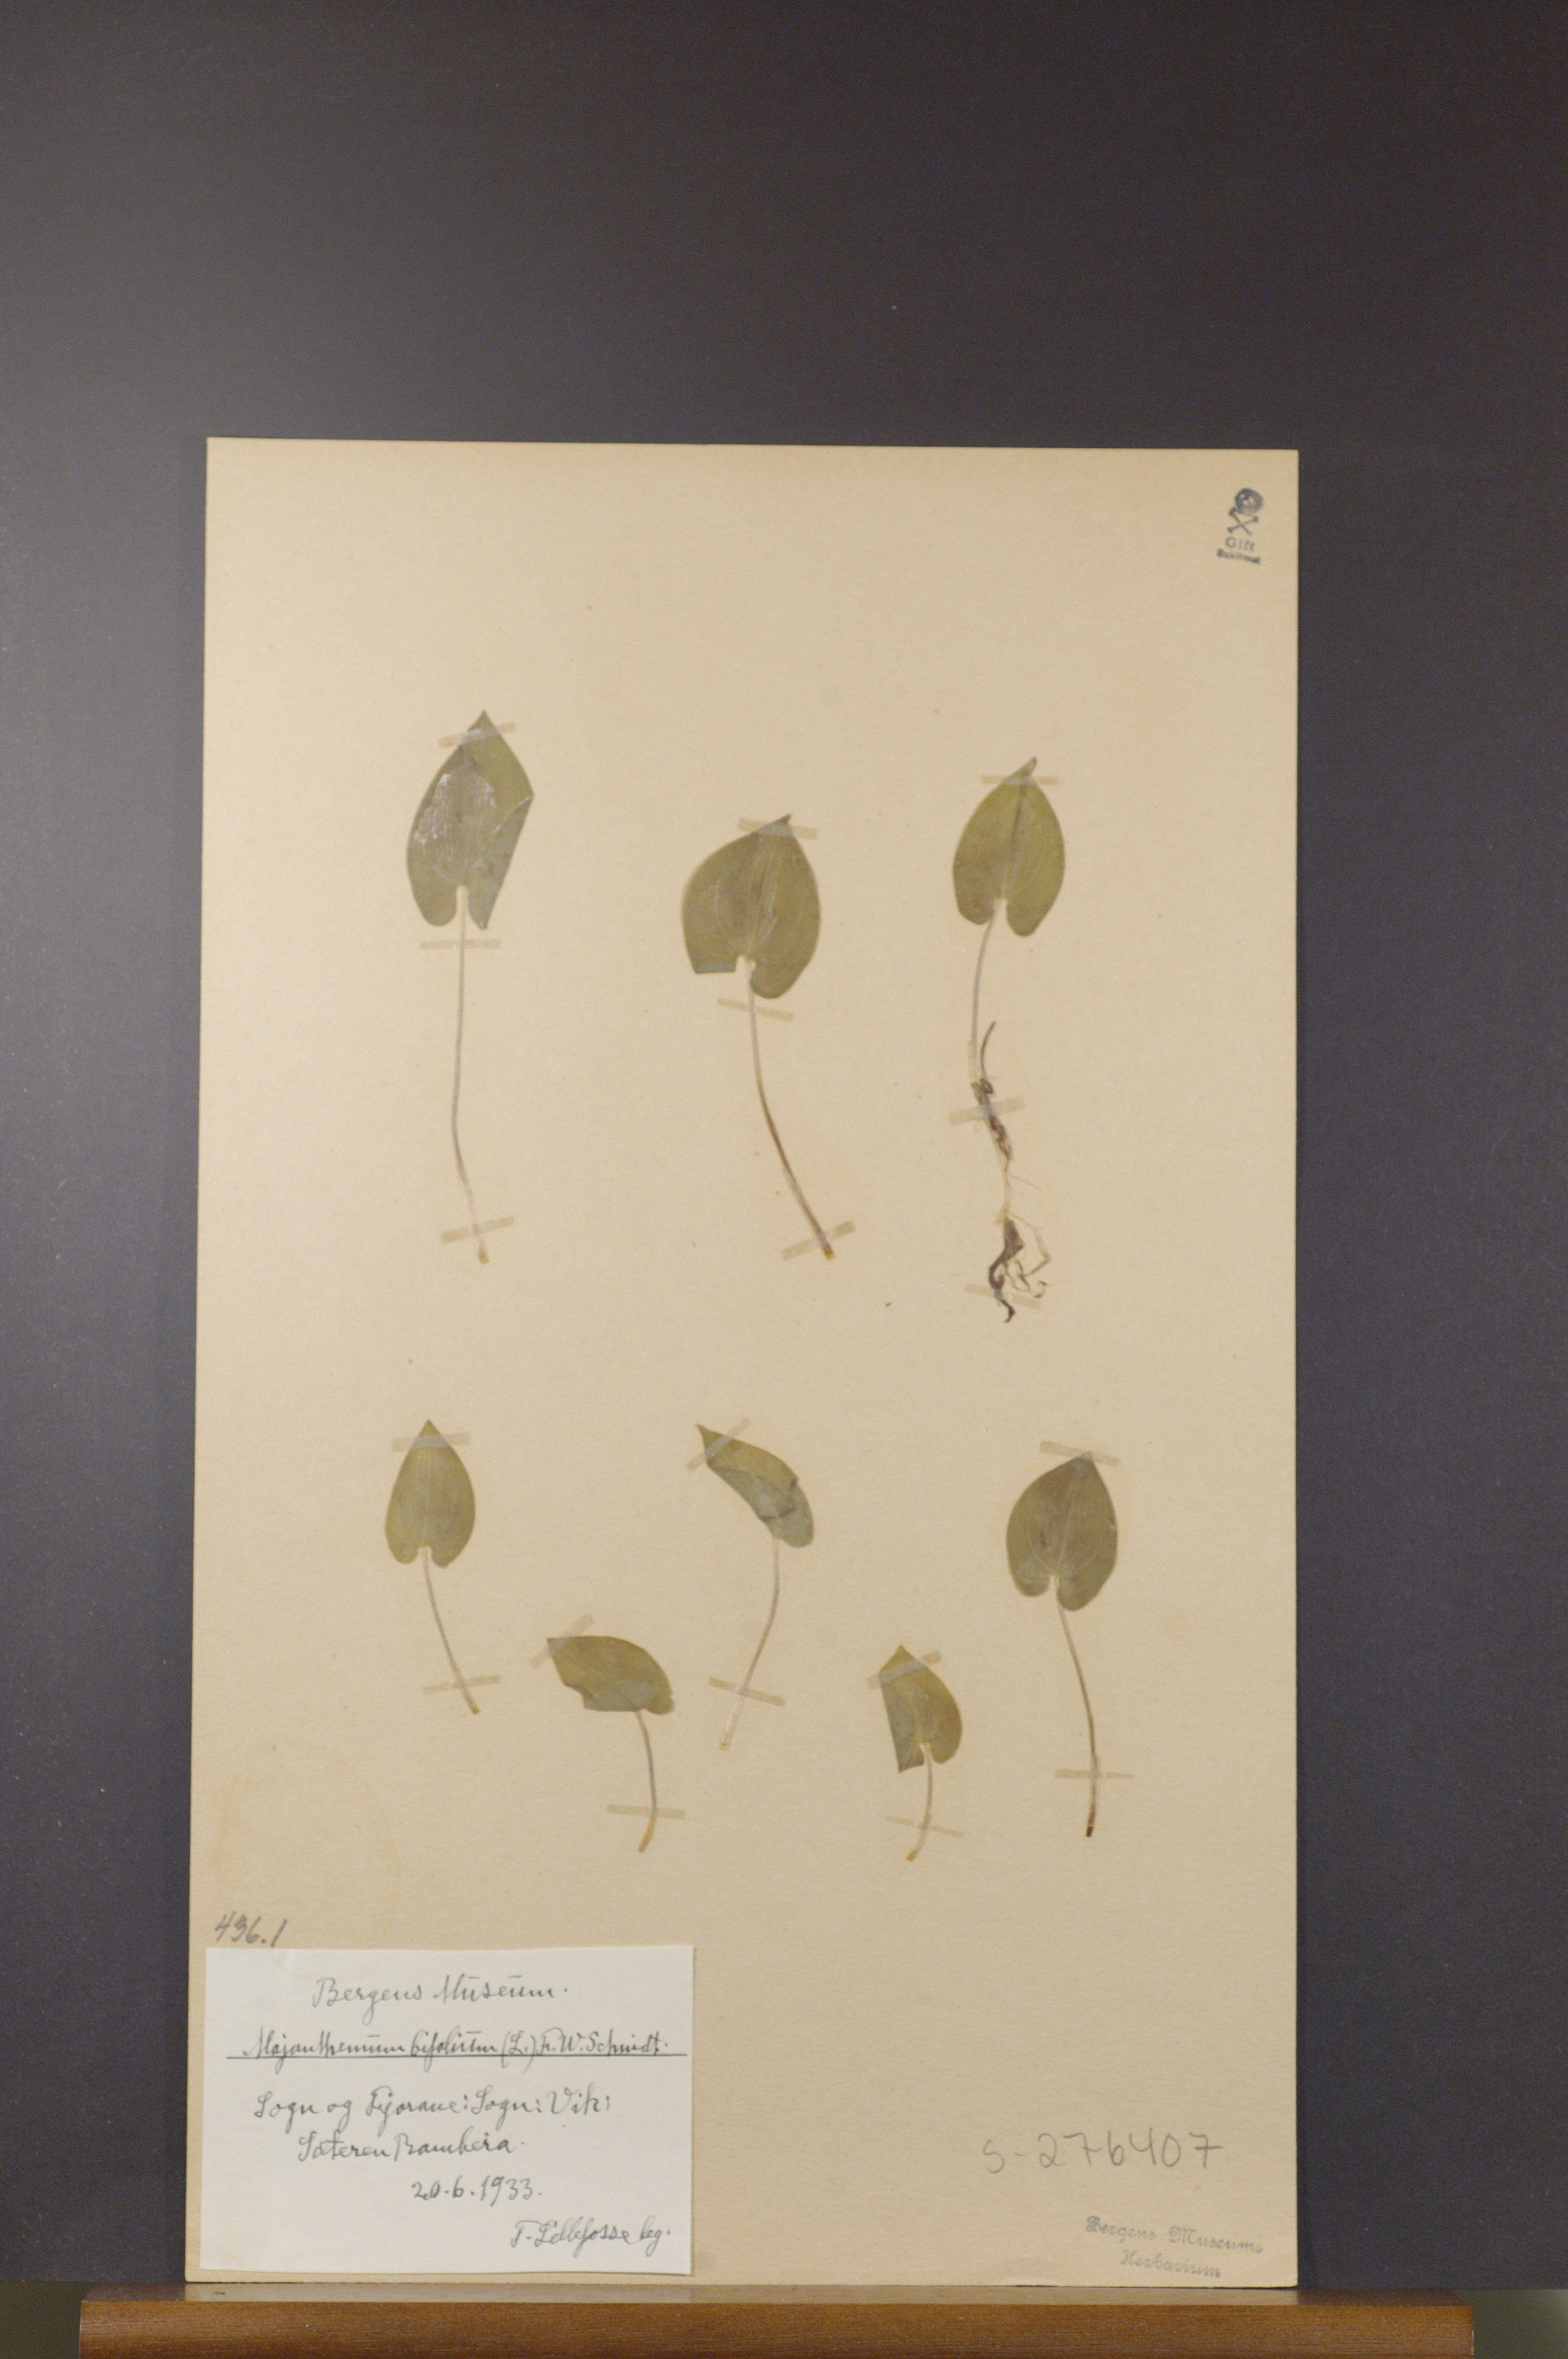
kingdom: Plantae
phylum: Tracheophyta
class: Liliopsida
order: Asparagales
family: Asparagaceae
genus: Maianthemum
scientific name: Maianthemum bifolium
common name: May lily
